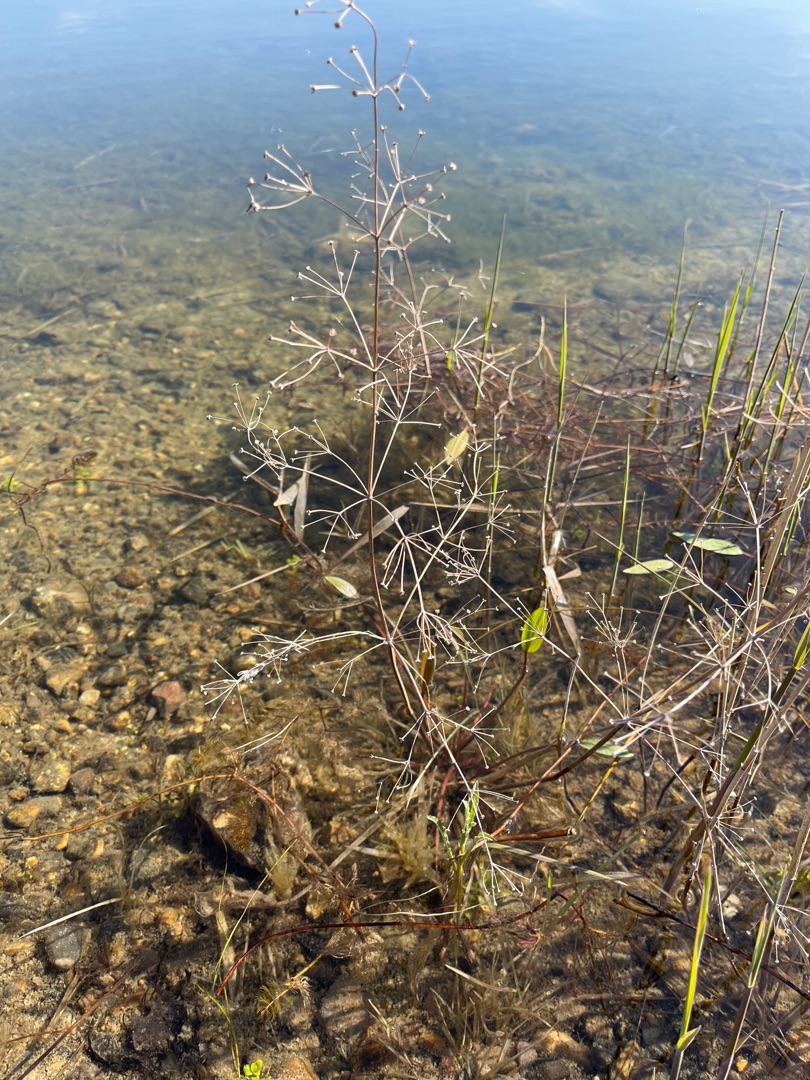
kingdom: Plantae
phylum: Tracheophyta
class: Liliopsida
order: Alismatales
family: Alismataceae
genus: Alisma
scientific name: Alisma plantago-aquatica
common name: Vejbred-skeblad
